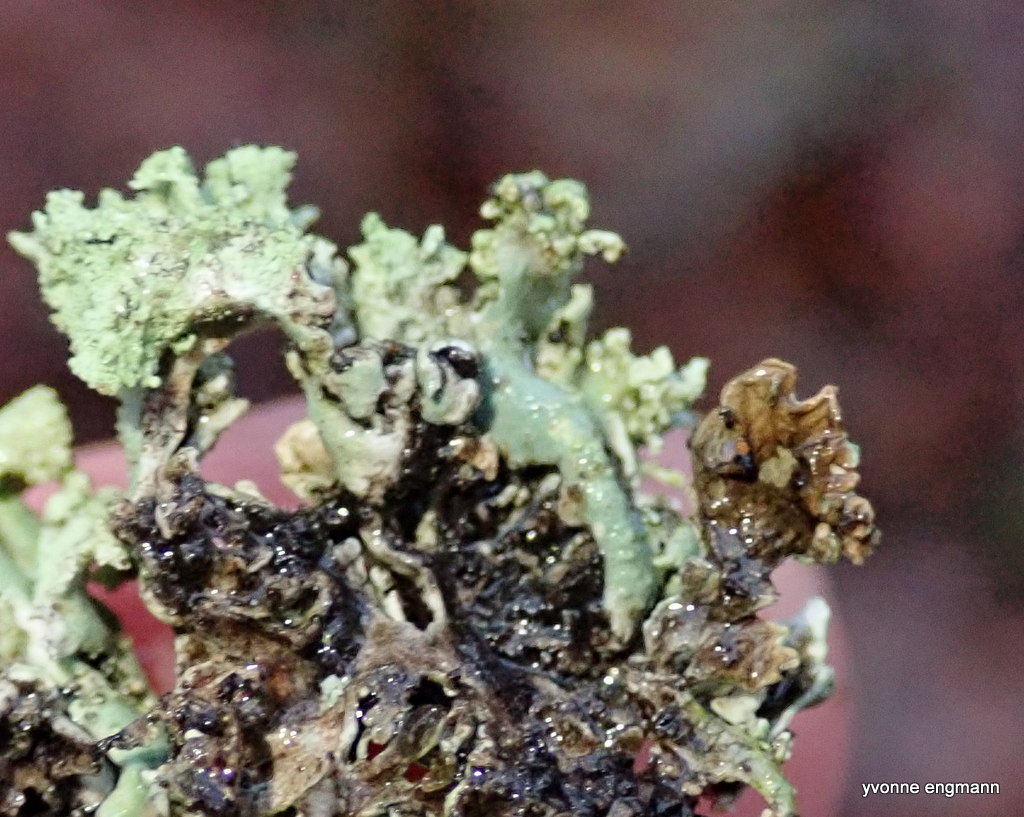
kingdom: Fungi
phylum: Ascomycota
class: Lecanoromycetes
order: Lecanorales
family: Parmeliaceae
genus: Hypogymnia
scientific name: Hypogymnia physodes
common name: almindelig kvistlav
